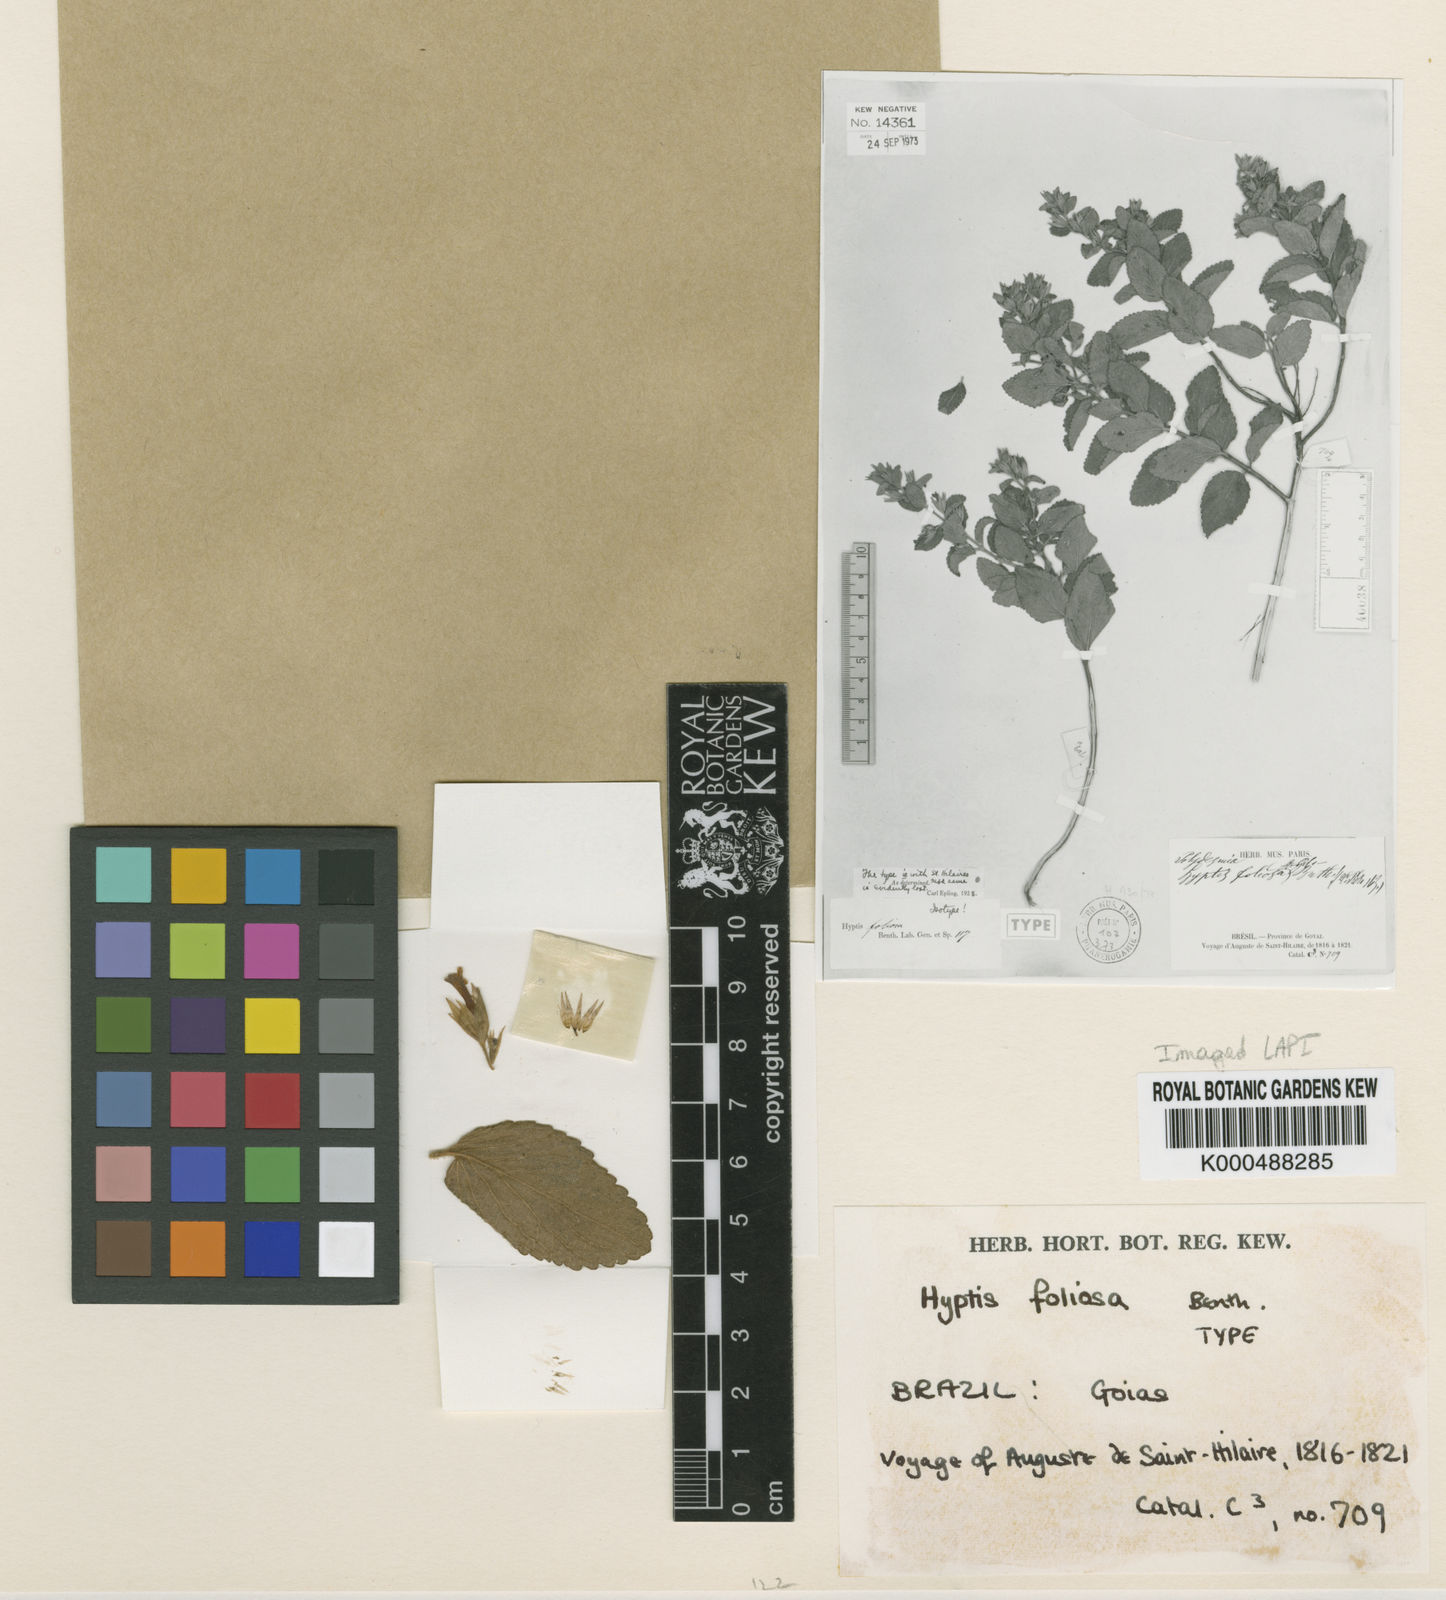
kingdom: Plantae
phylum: Tracheophyta
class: Magnoliopsida
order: Lamiales
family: Lamiaceae
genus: Oocephalus
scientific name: Oocephalus foliosus
